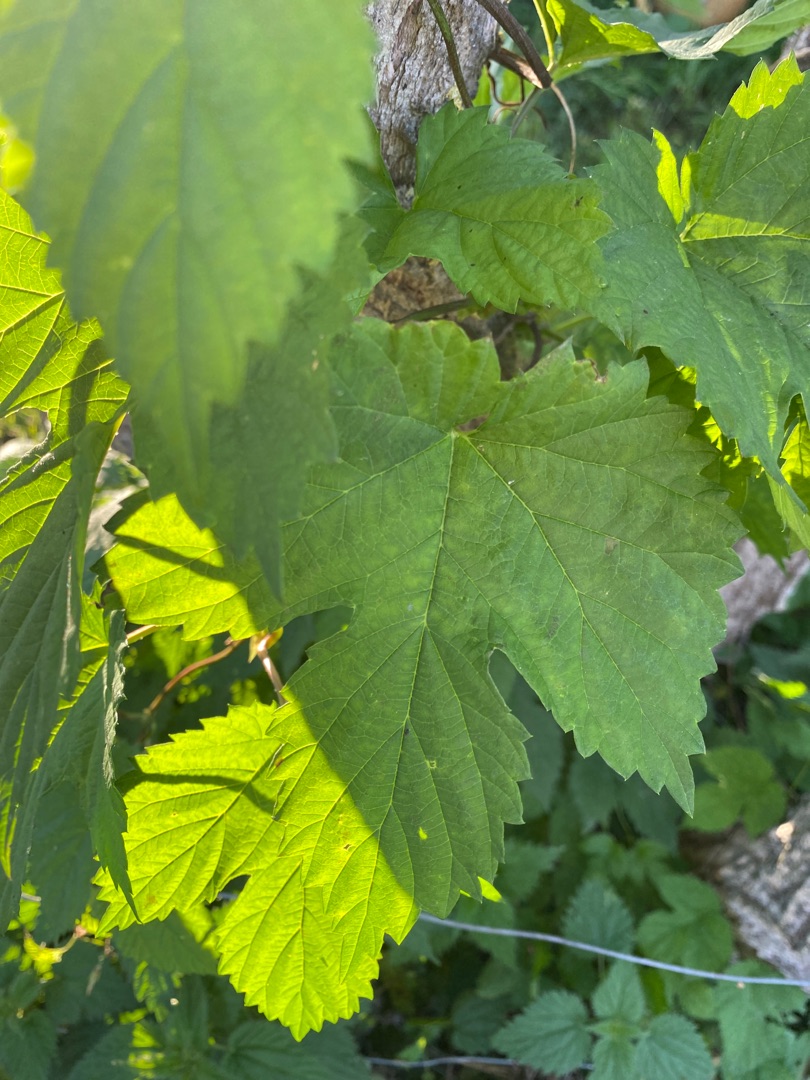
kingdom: Plantae
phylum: Tracheophyta
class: Magnoliopsida
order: Rosales
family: Cannabaceae
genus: Humulus
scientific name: Humulus lupulus
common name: Humle
